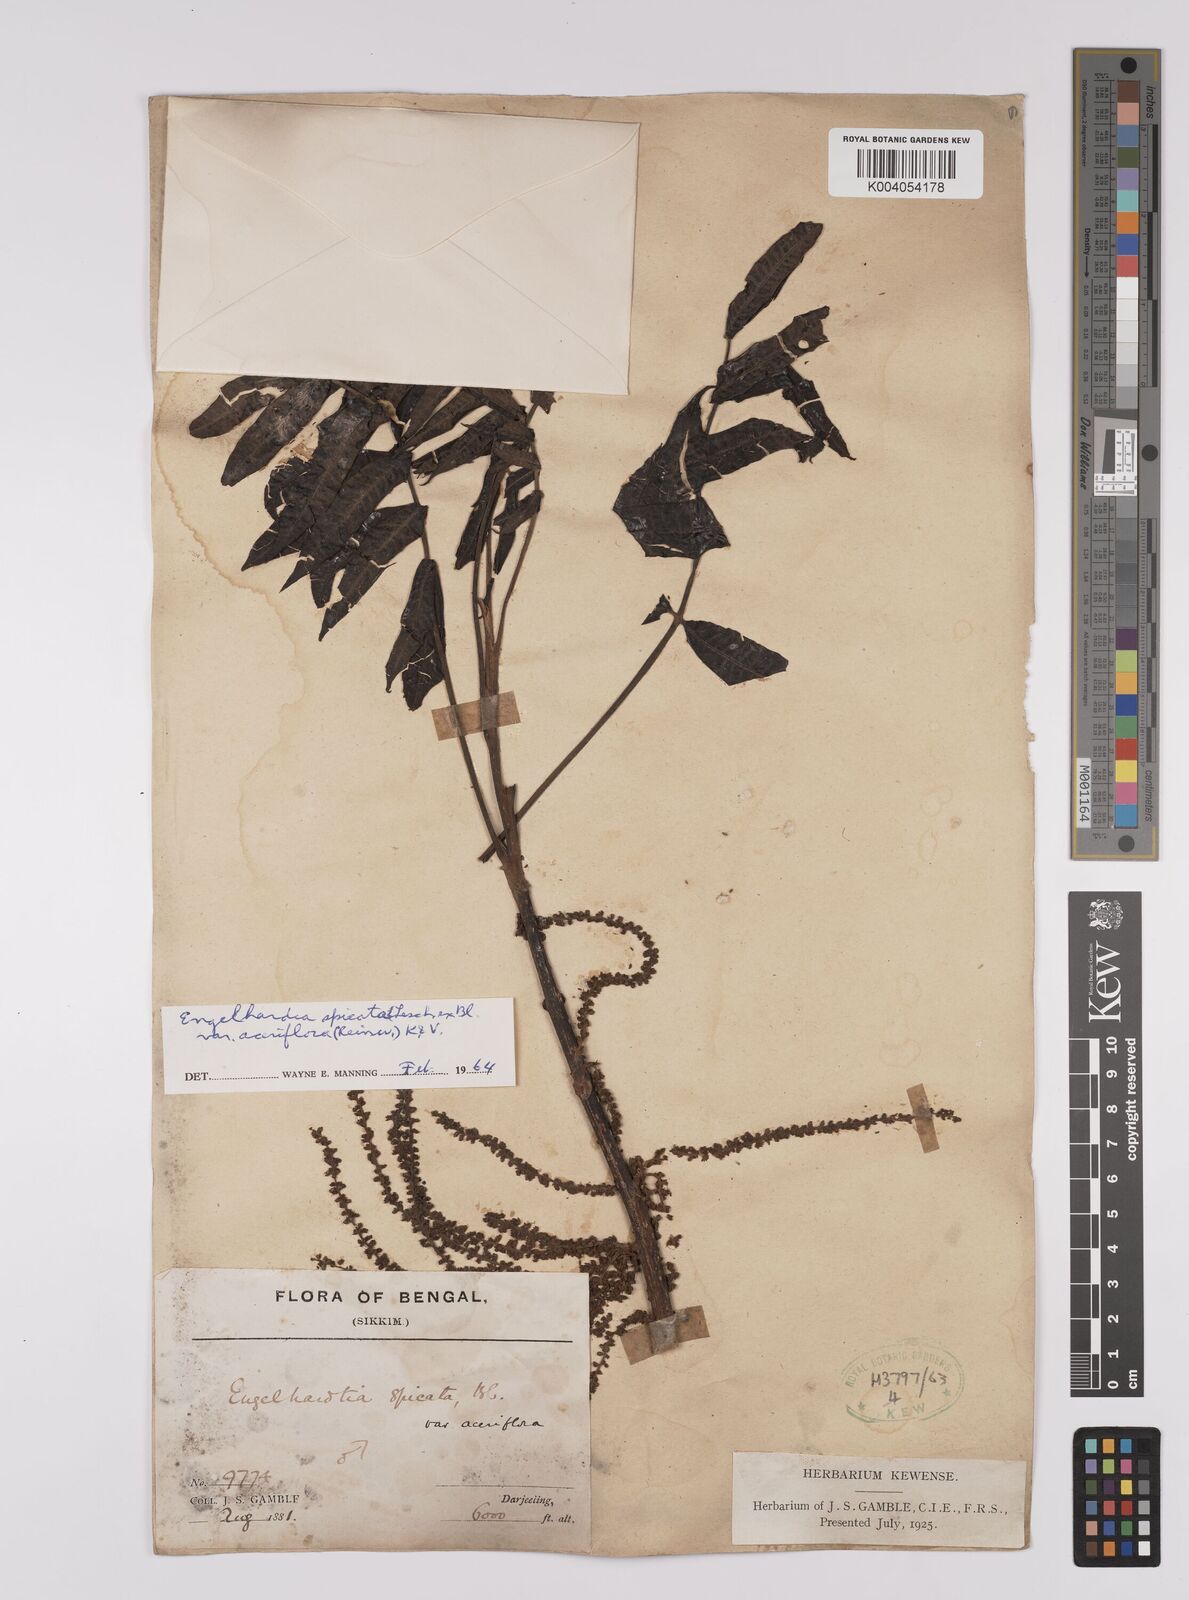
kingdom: Plantae
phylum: Tracheophyta
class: Magnoliopsida
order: Fagales
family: Juglandaceae
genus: Engelhardia
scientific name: Engelhardia spicata
